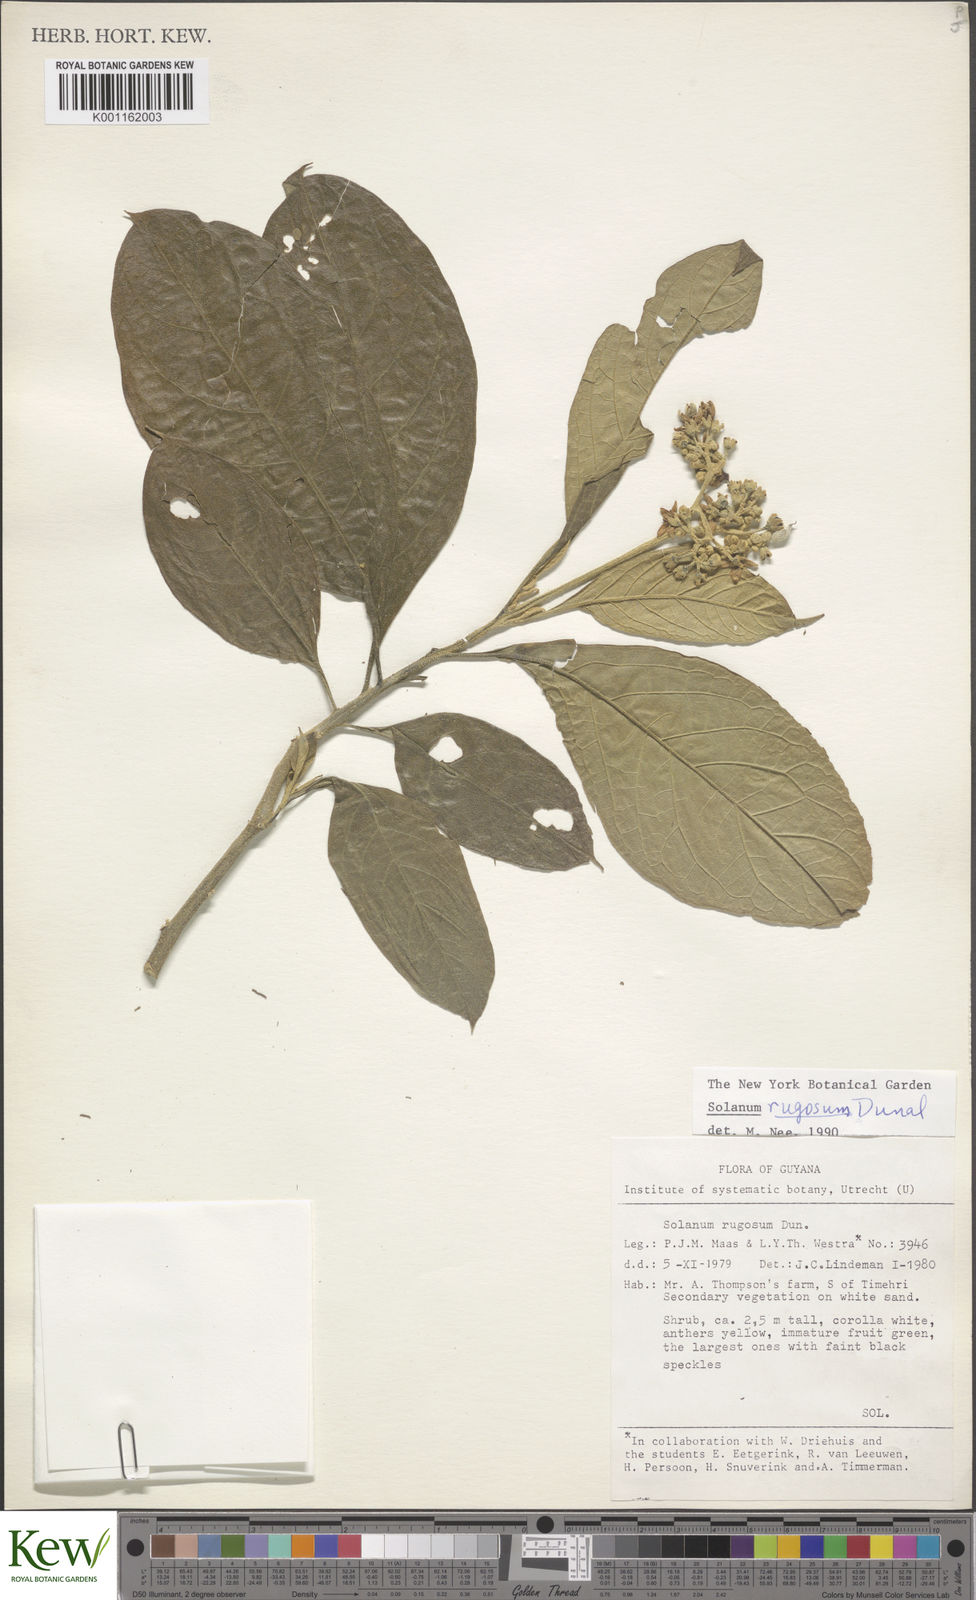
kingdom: Plantae
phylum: Tracheophyta
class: Magnoliopsida
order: Solanales
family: Solanaceae
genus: Solanum
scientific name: Solanum rugosum
